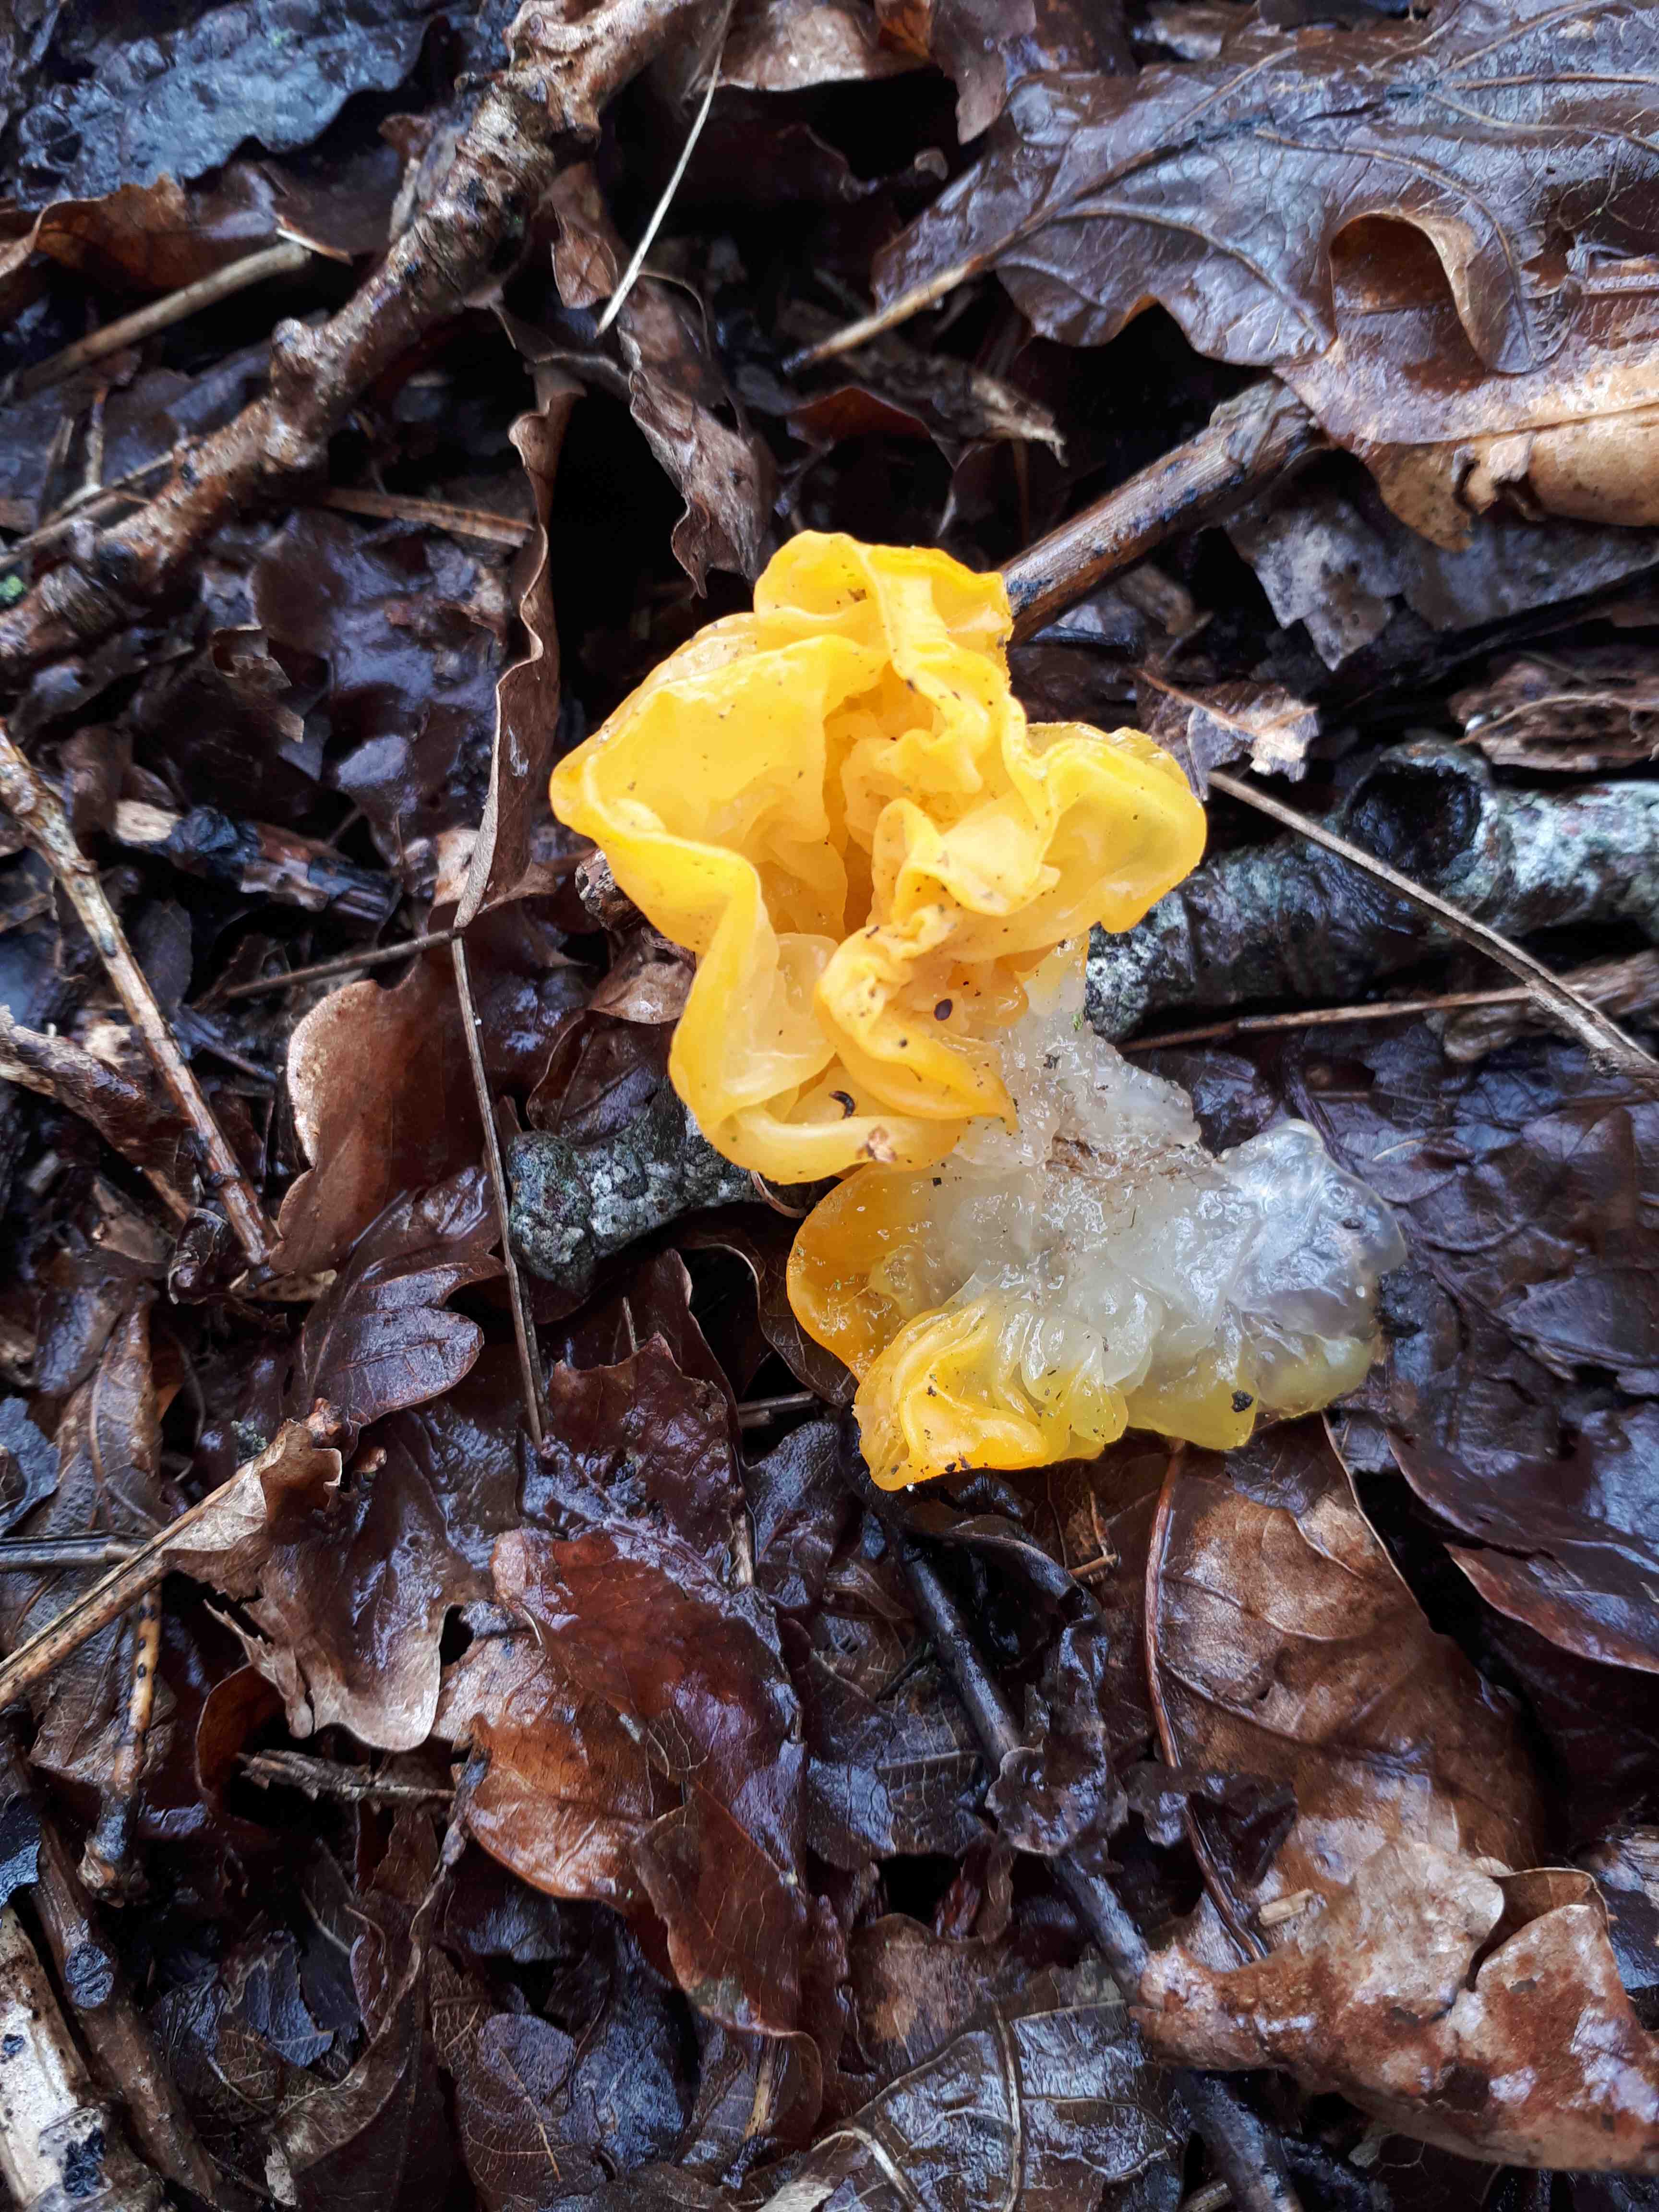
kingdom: Fungi
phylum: Basidiomycota
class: Tremellomycetes
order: Tremellales
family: Tremellaceae
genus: Tremella
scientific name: Tremella mesenterica
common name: gul bævresvamp
